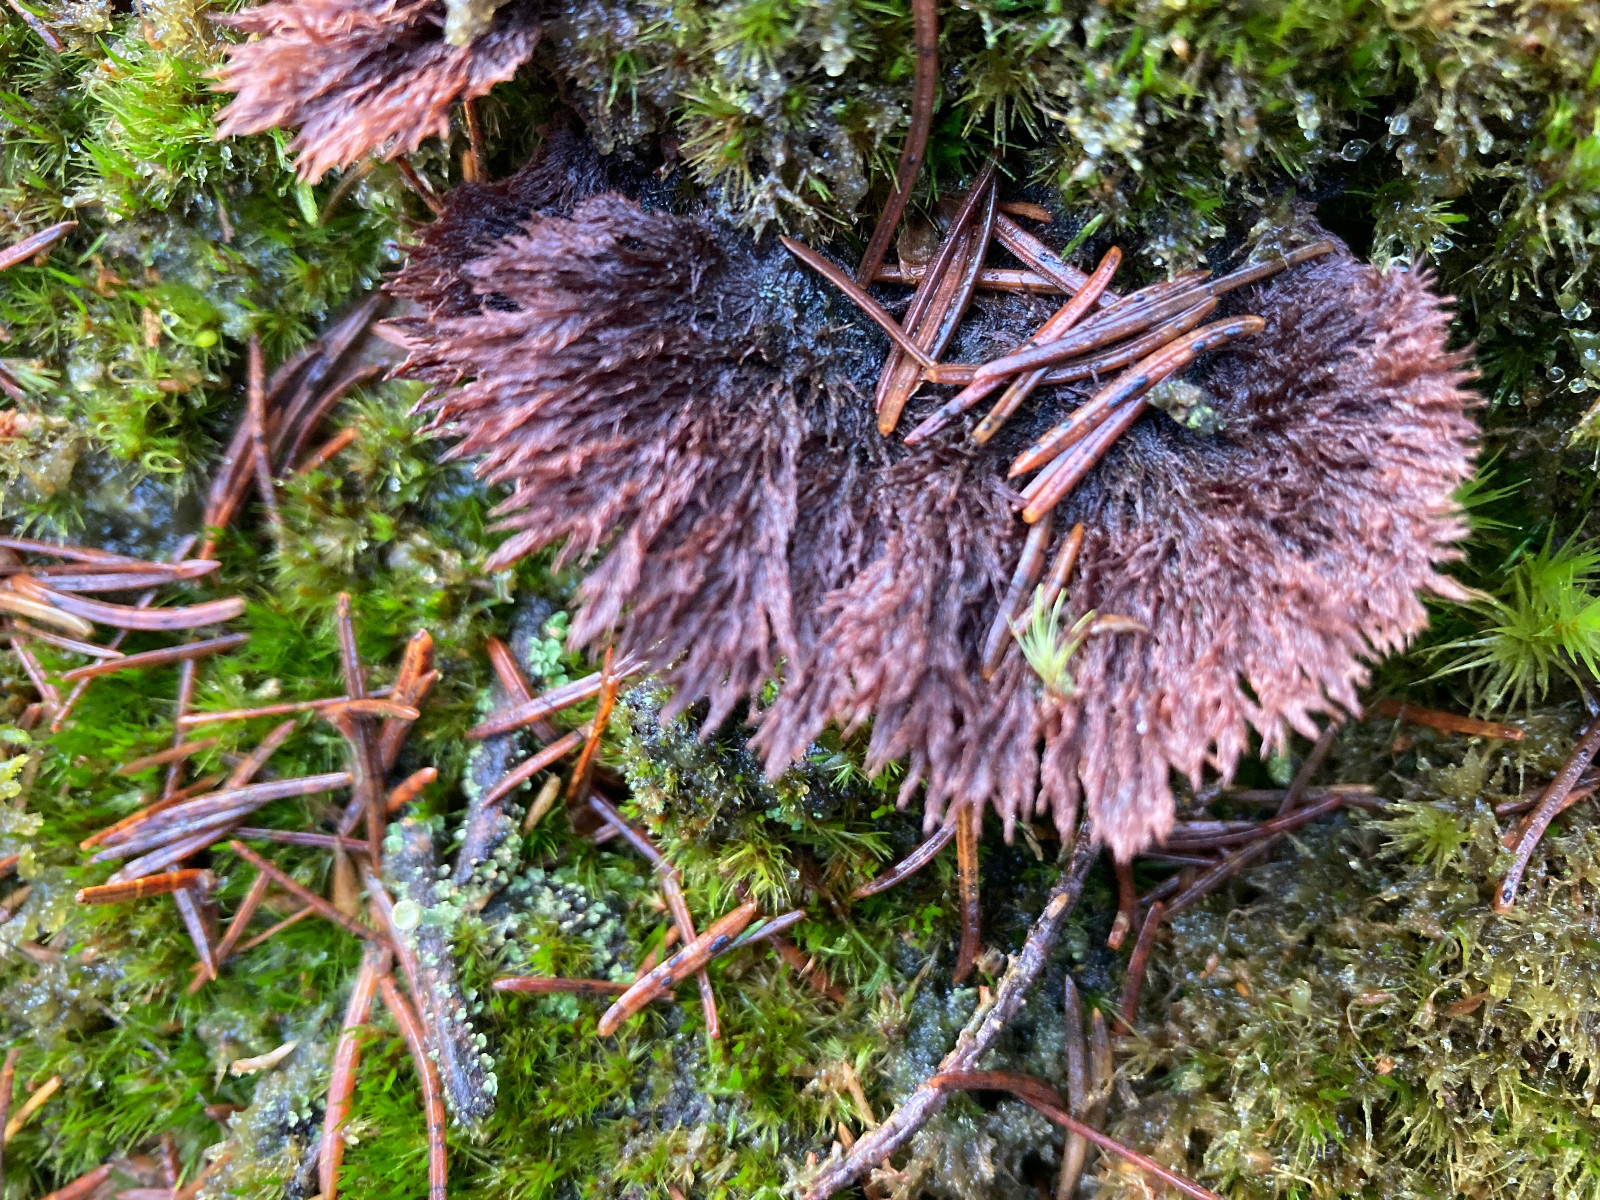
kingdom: Fungi
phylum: Basidiomycota
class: Agaricomycetes
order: Thelephorales
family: Thelephoraceae
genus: Thelephora
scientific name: Thelephora terrestris
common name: fliget frynsesvamp
